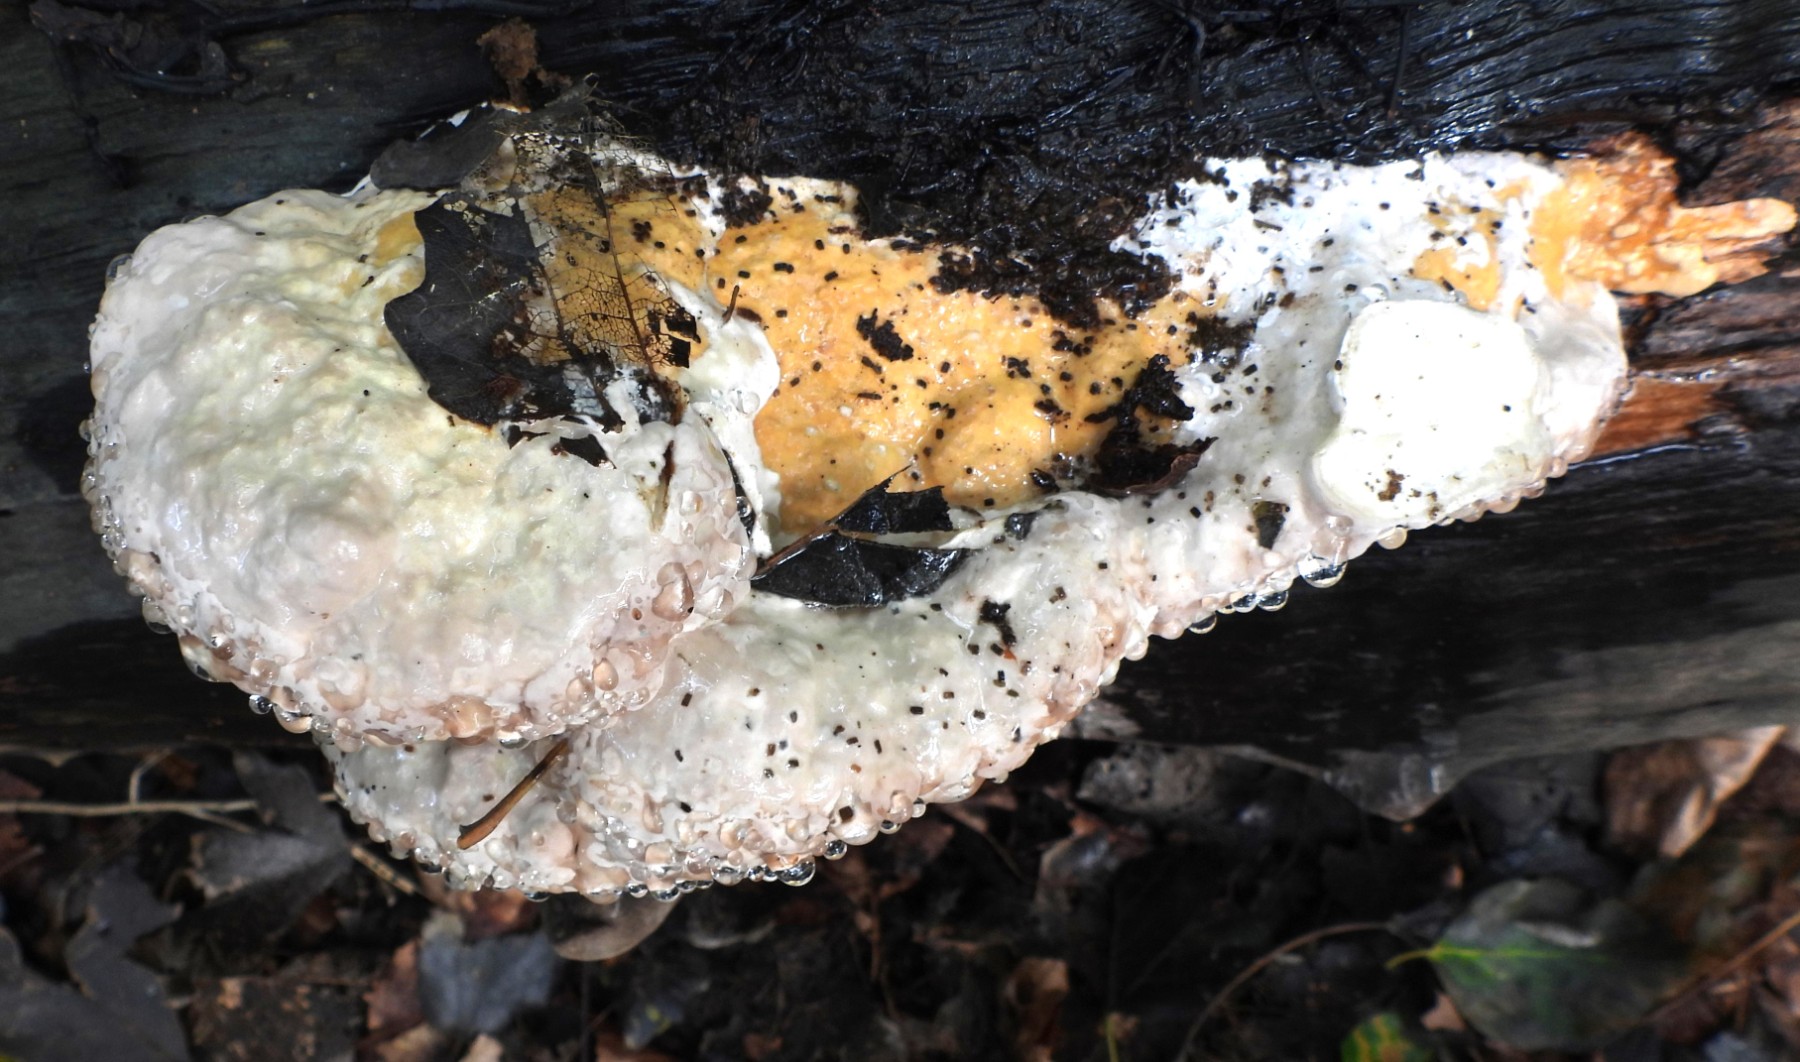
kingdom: Fungi
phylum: Basidiomycota
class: Agaricomycetes
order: Polyporales
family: Fomitopsidaceae
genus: Fomitopsis
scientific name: Fomitopsis pinicola
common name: randbæltet hovporesvamp
